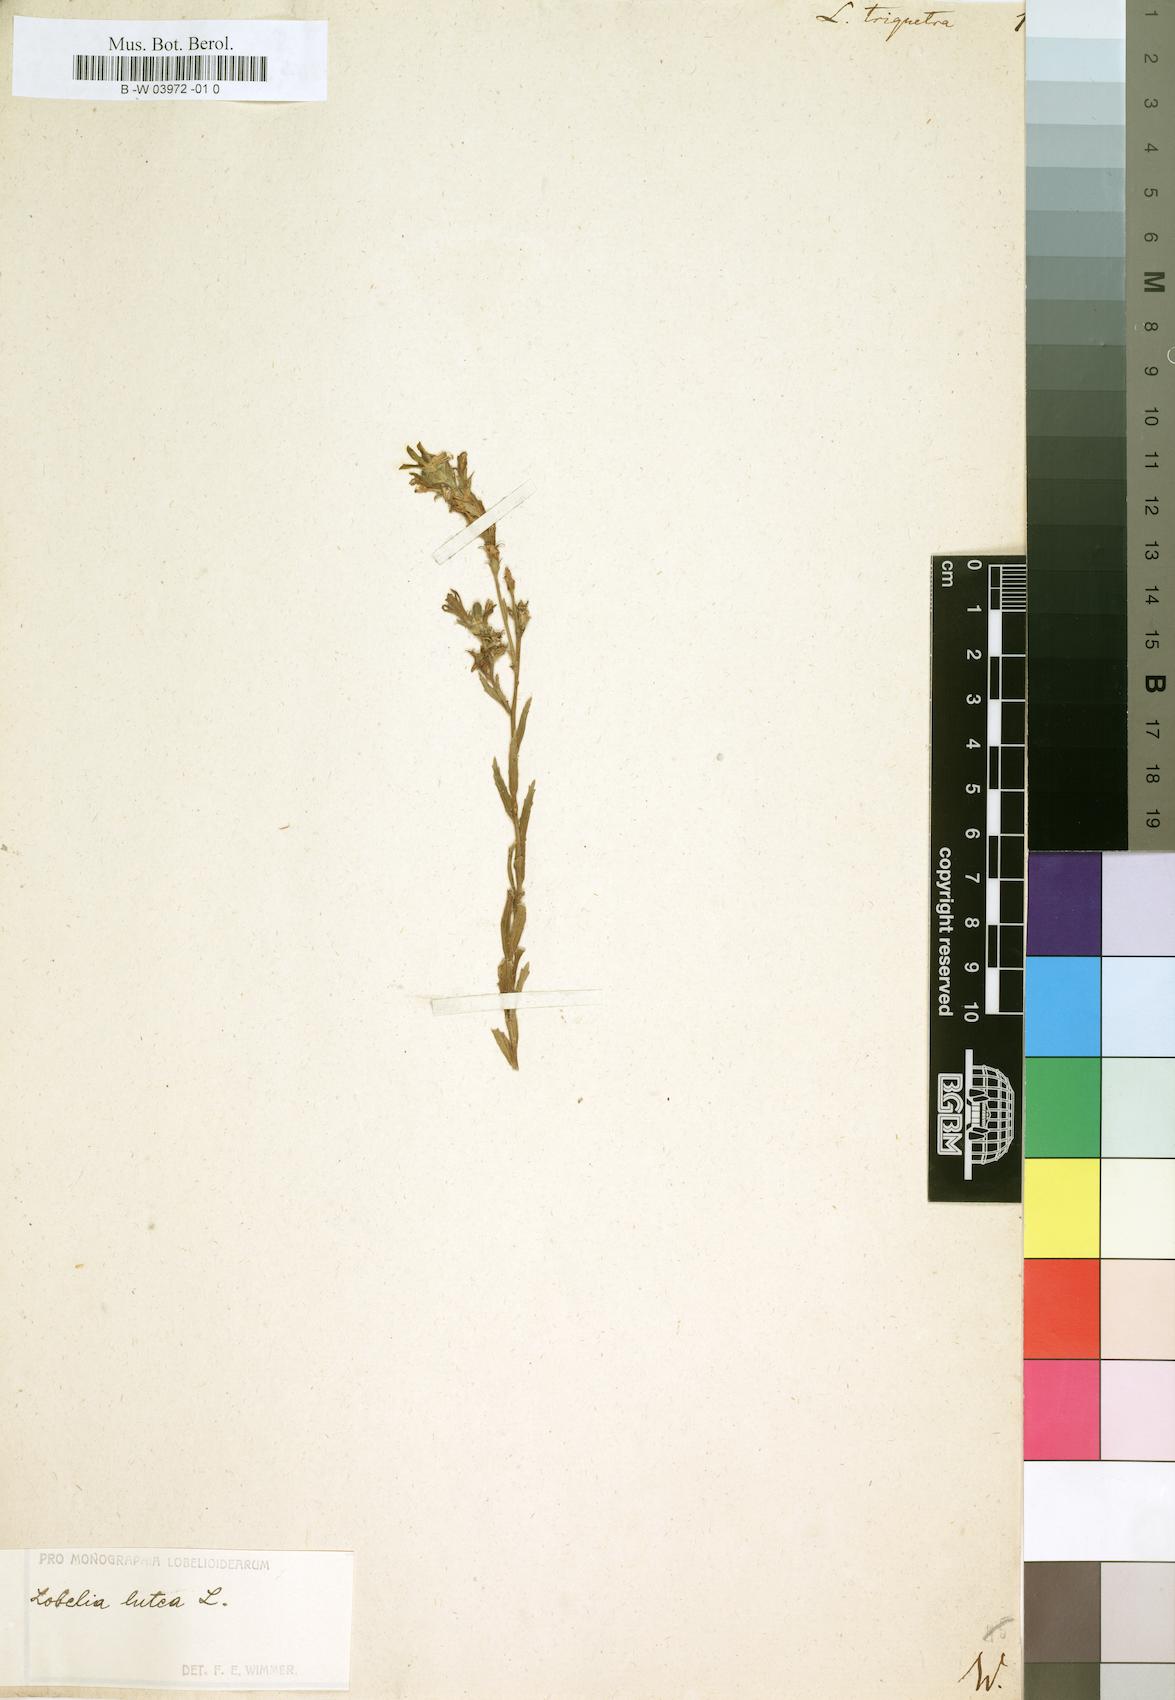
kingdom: Plantae
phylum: Tracheophyta
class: Magnoliopsida
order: Asterales
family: Campanulaceae
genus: Lobelia
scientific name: Lobelia triquetra
